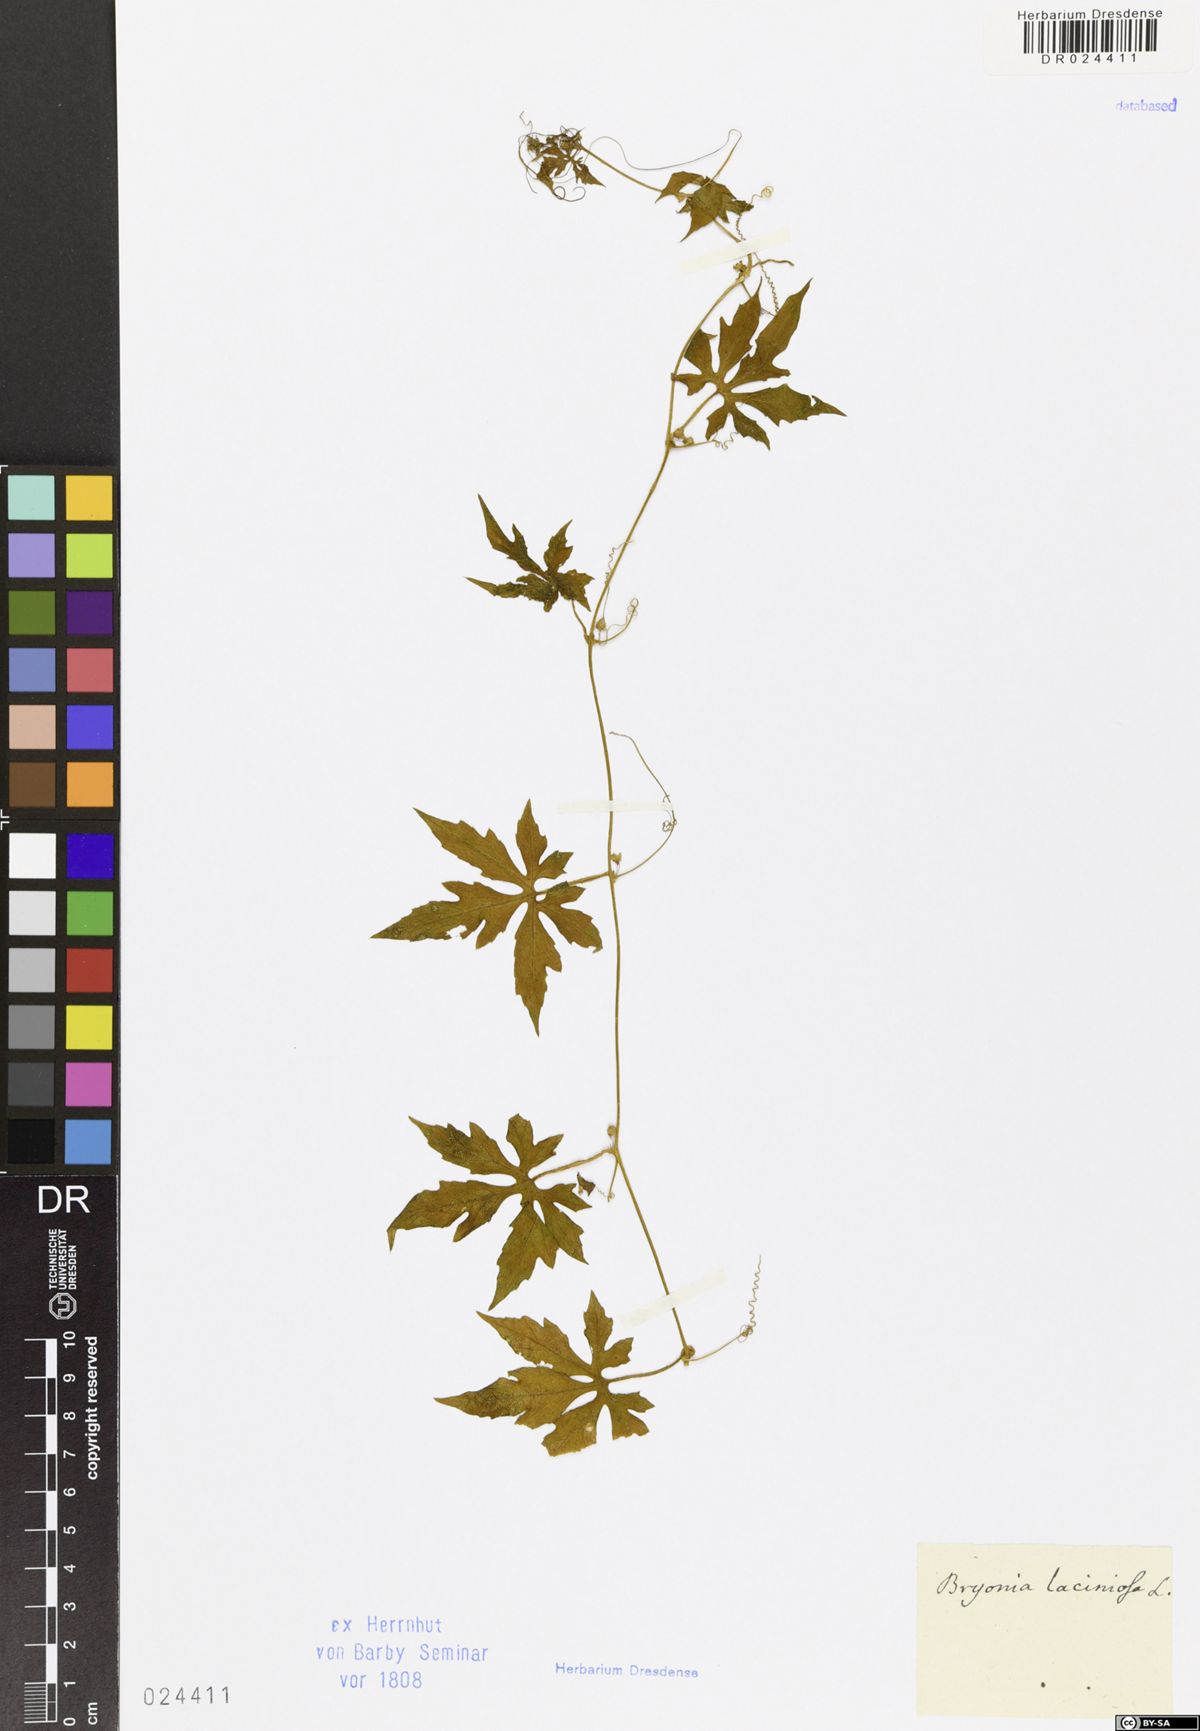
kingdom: Plantae
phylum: Tracheophyta
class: Magnoliopsida
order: Cucurbitales
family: Cucurbitaceae
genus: Diplocyclos
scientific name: Diplocyclos palmatus
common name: Striped-cucumber
